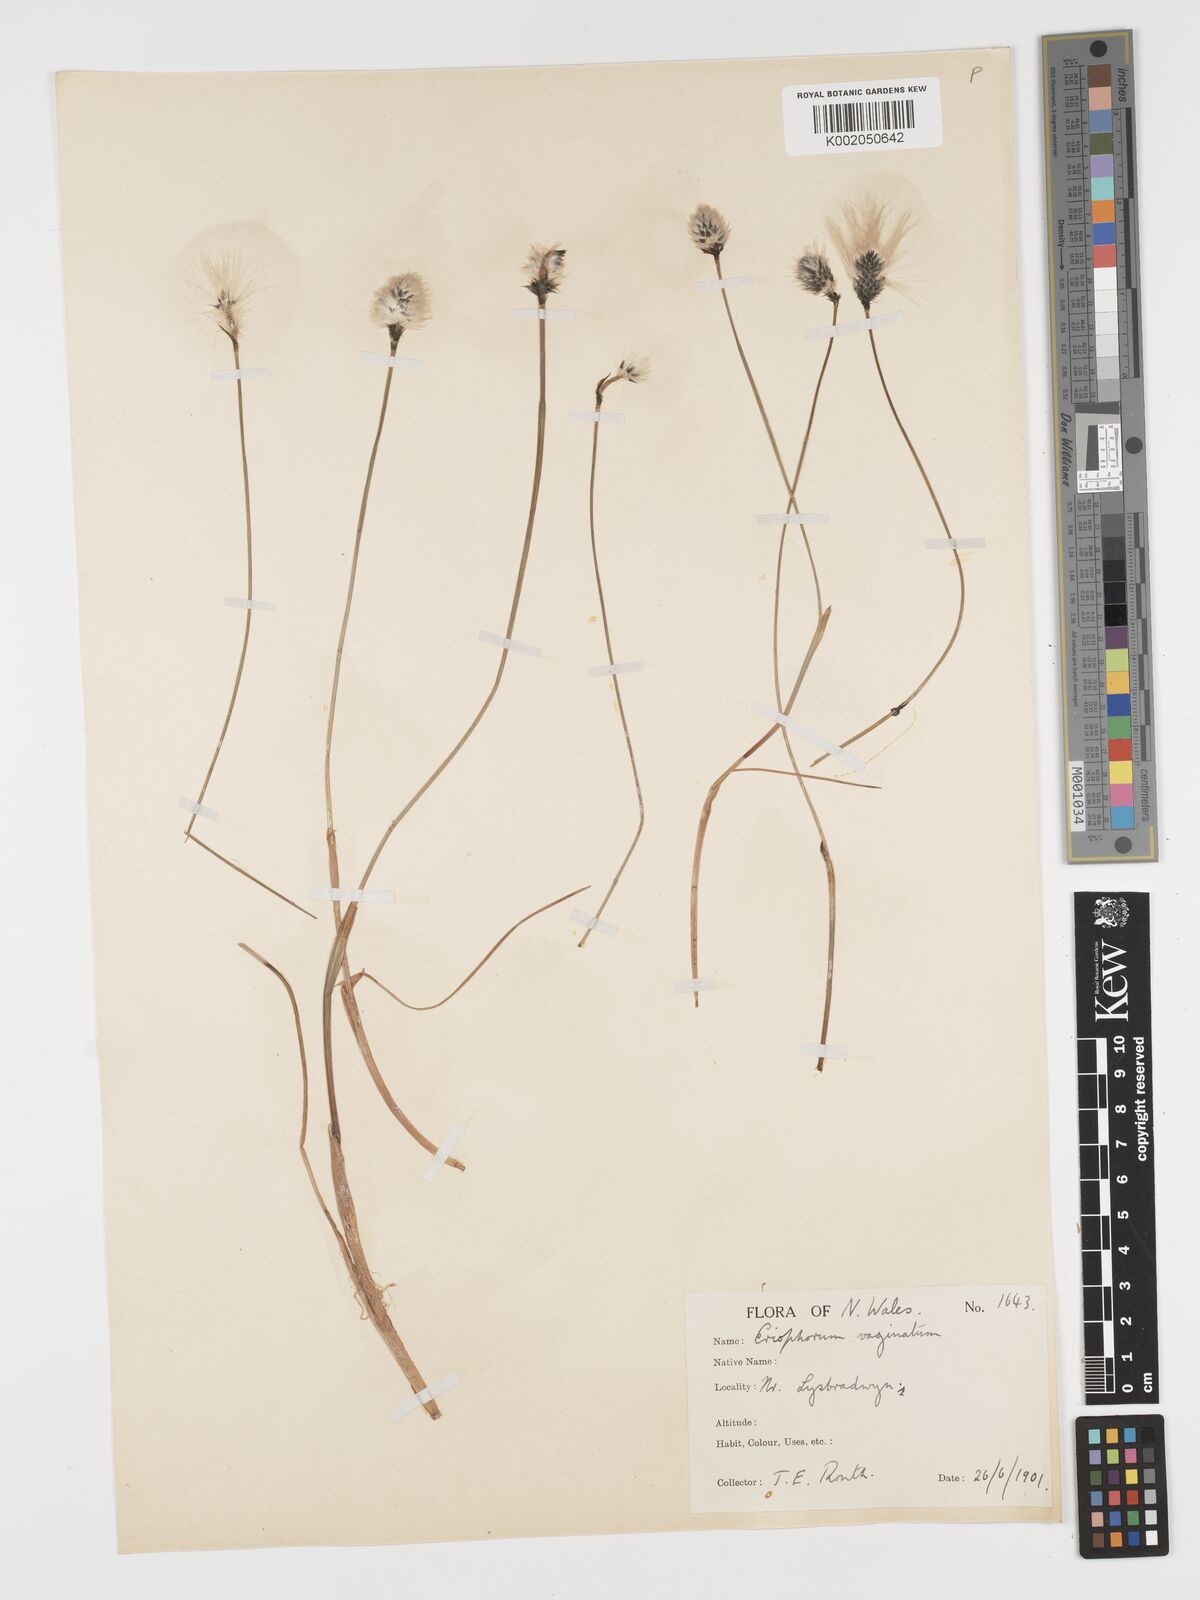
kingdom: Plantae
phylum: Tracheophyta
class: Liliopsida
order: Poales
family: Cyperaceae
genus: Eriophorum
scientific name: Eriophorum vaginatum
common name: Hare's-tail cottongrass
